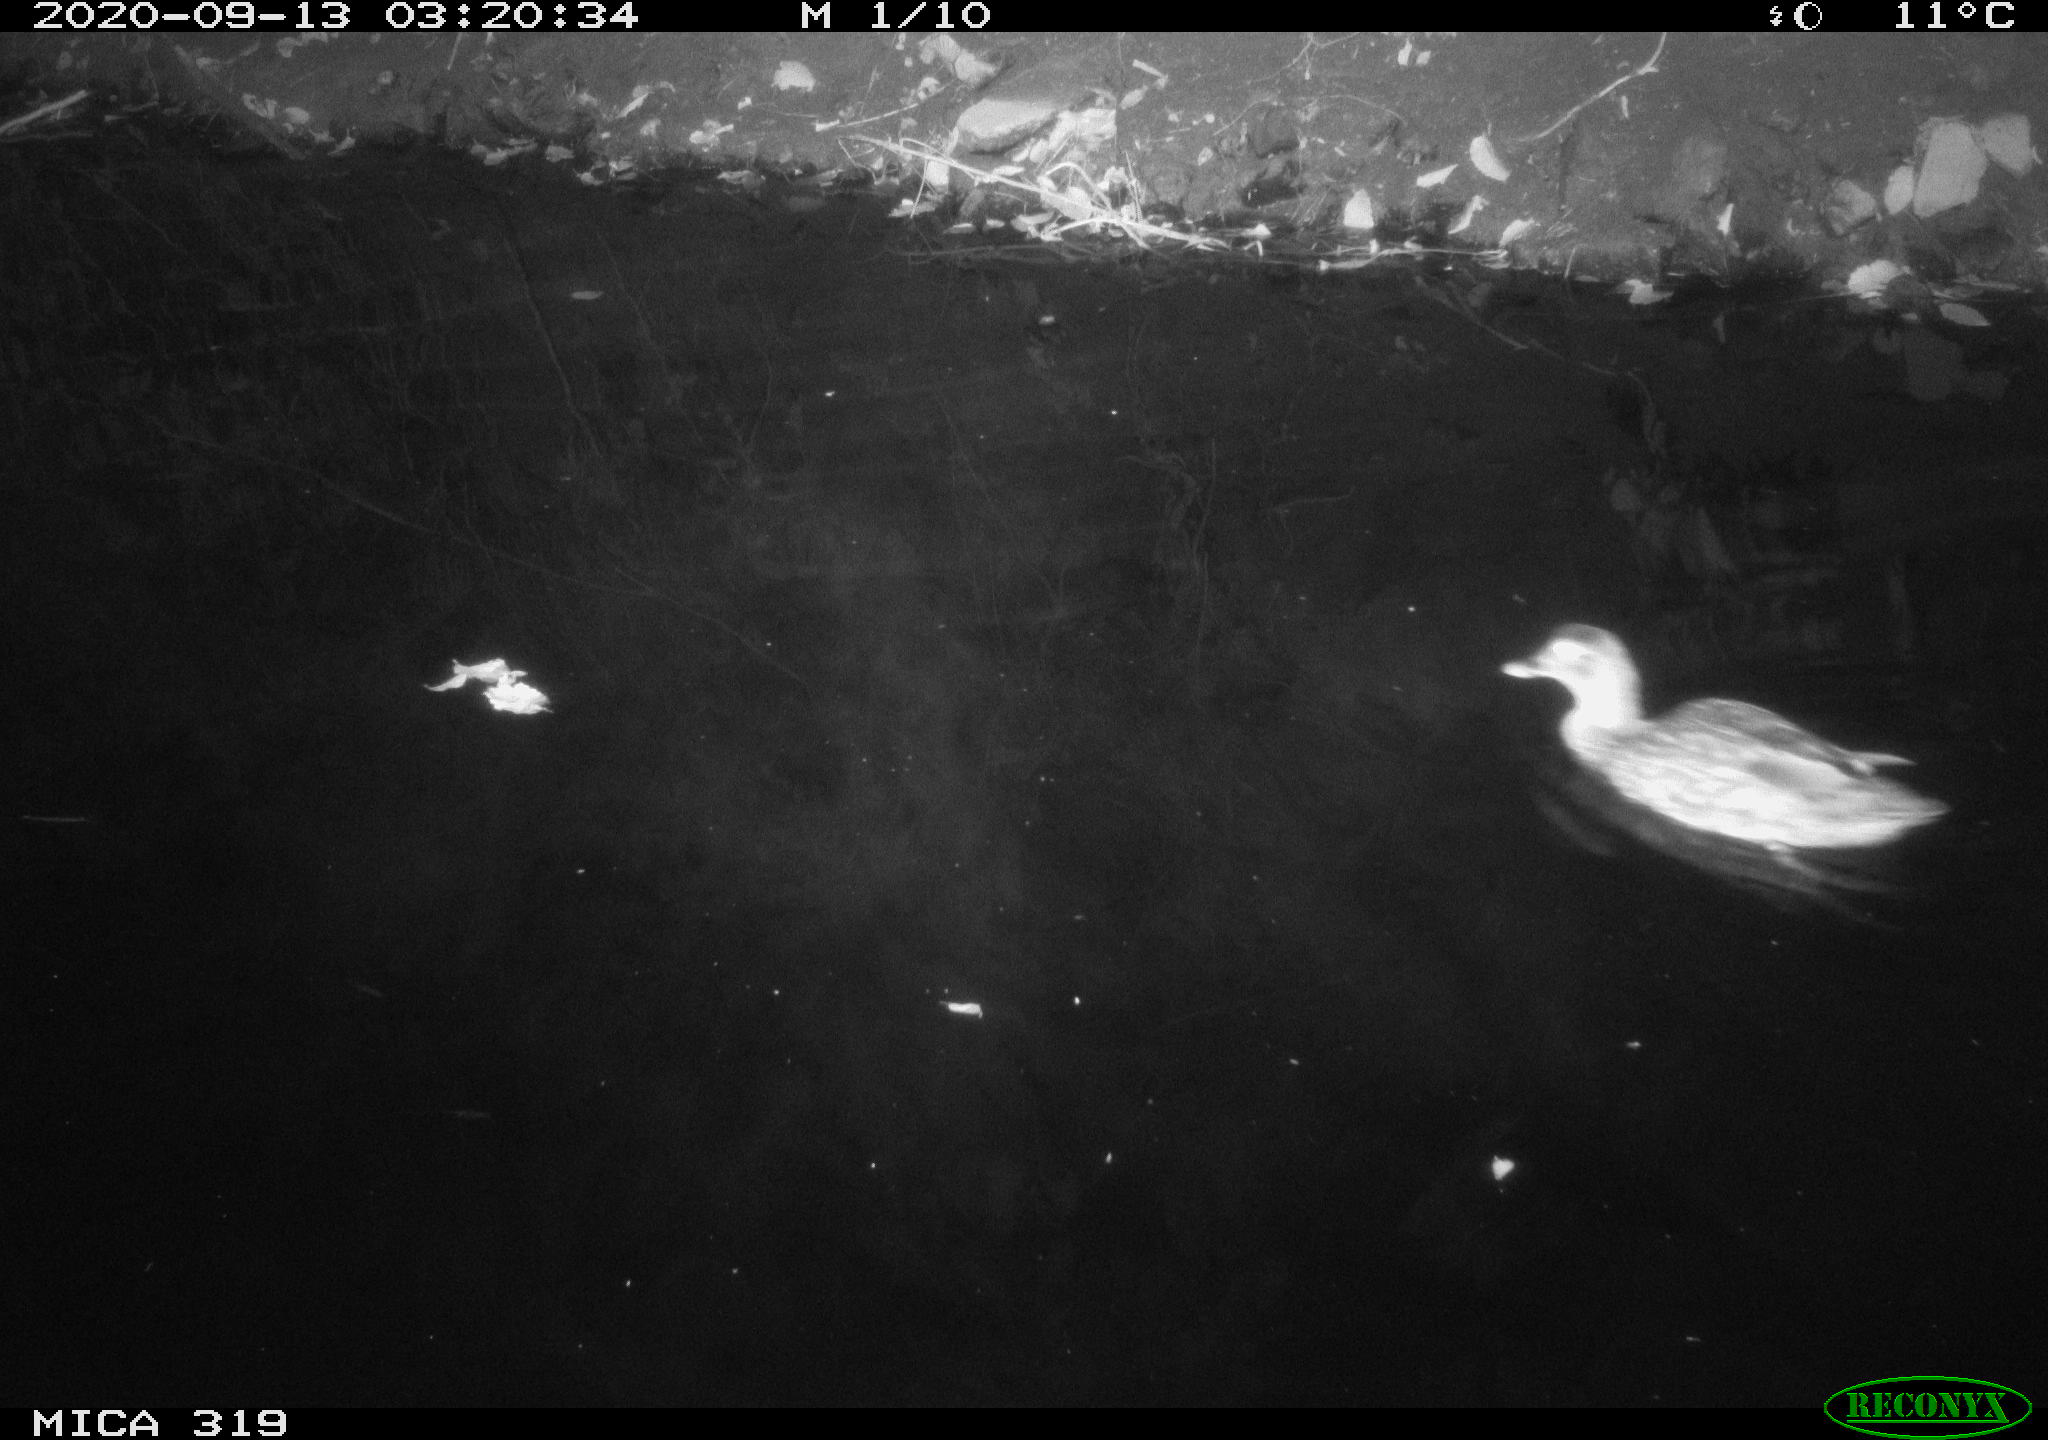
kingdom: Animalia
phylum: Chordata
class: Aves
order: Anseriformes
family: Anatidae
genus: Anas
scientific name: Anas platyrhynchos
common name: Mallard
